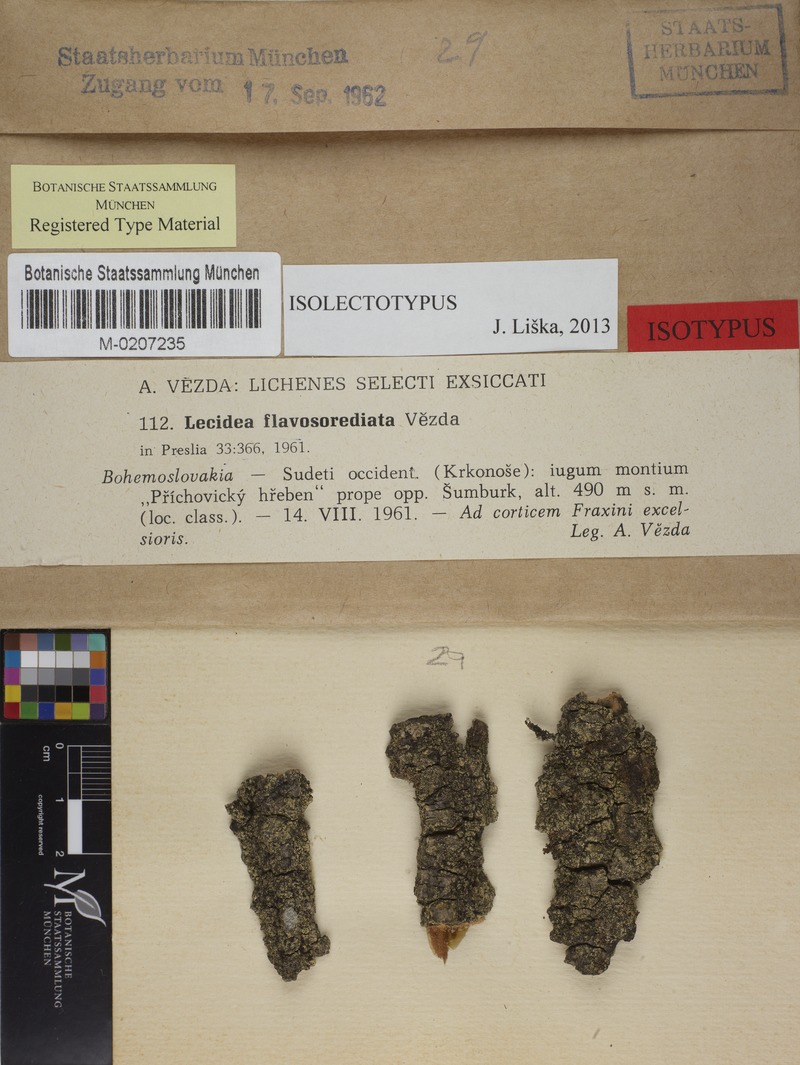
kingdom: Fungi
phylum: Ascomycota
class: Lecanoromycetes
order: Lecanorales
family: Lecanoraceae
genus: Lecidella
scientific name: Lecidella flavosorediata
